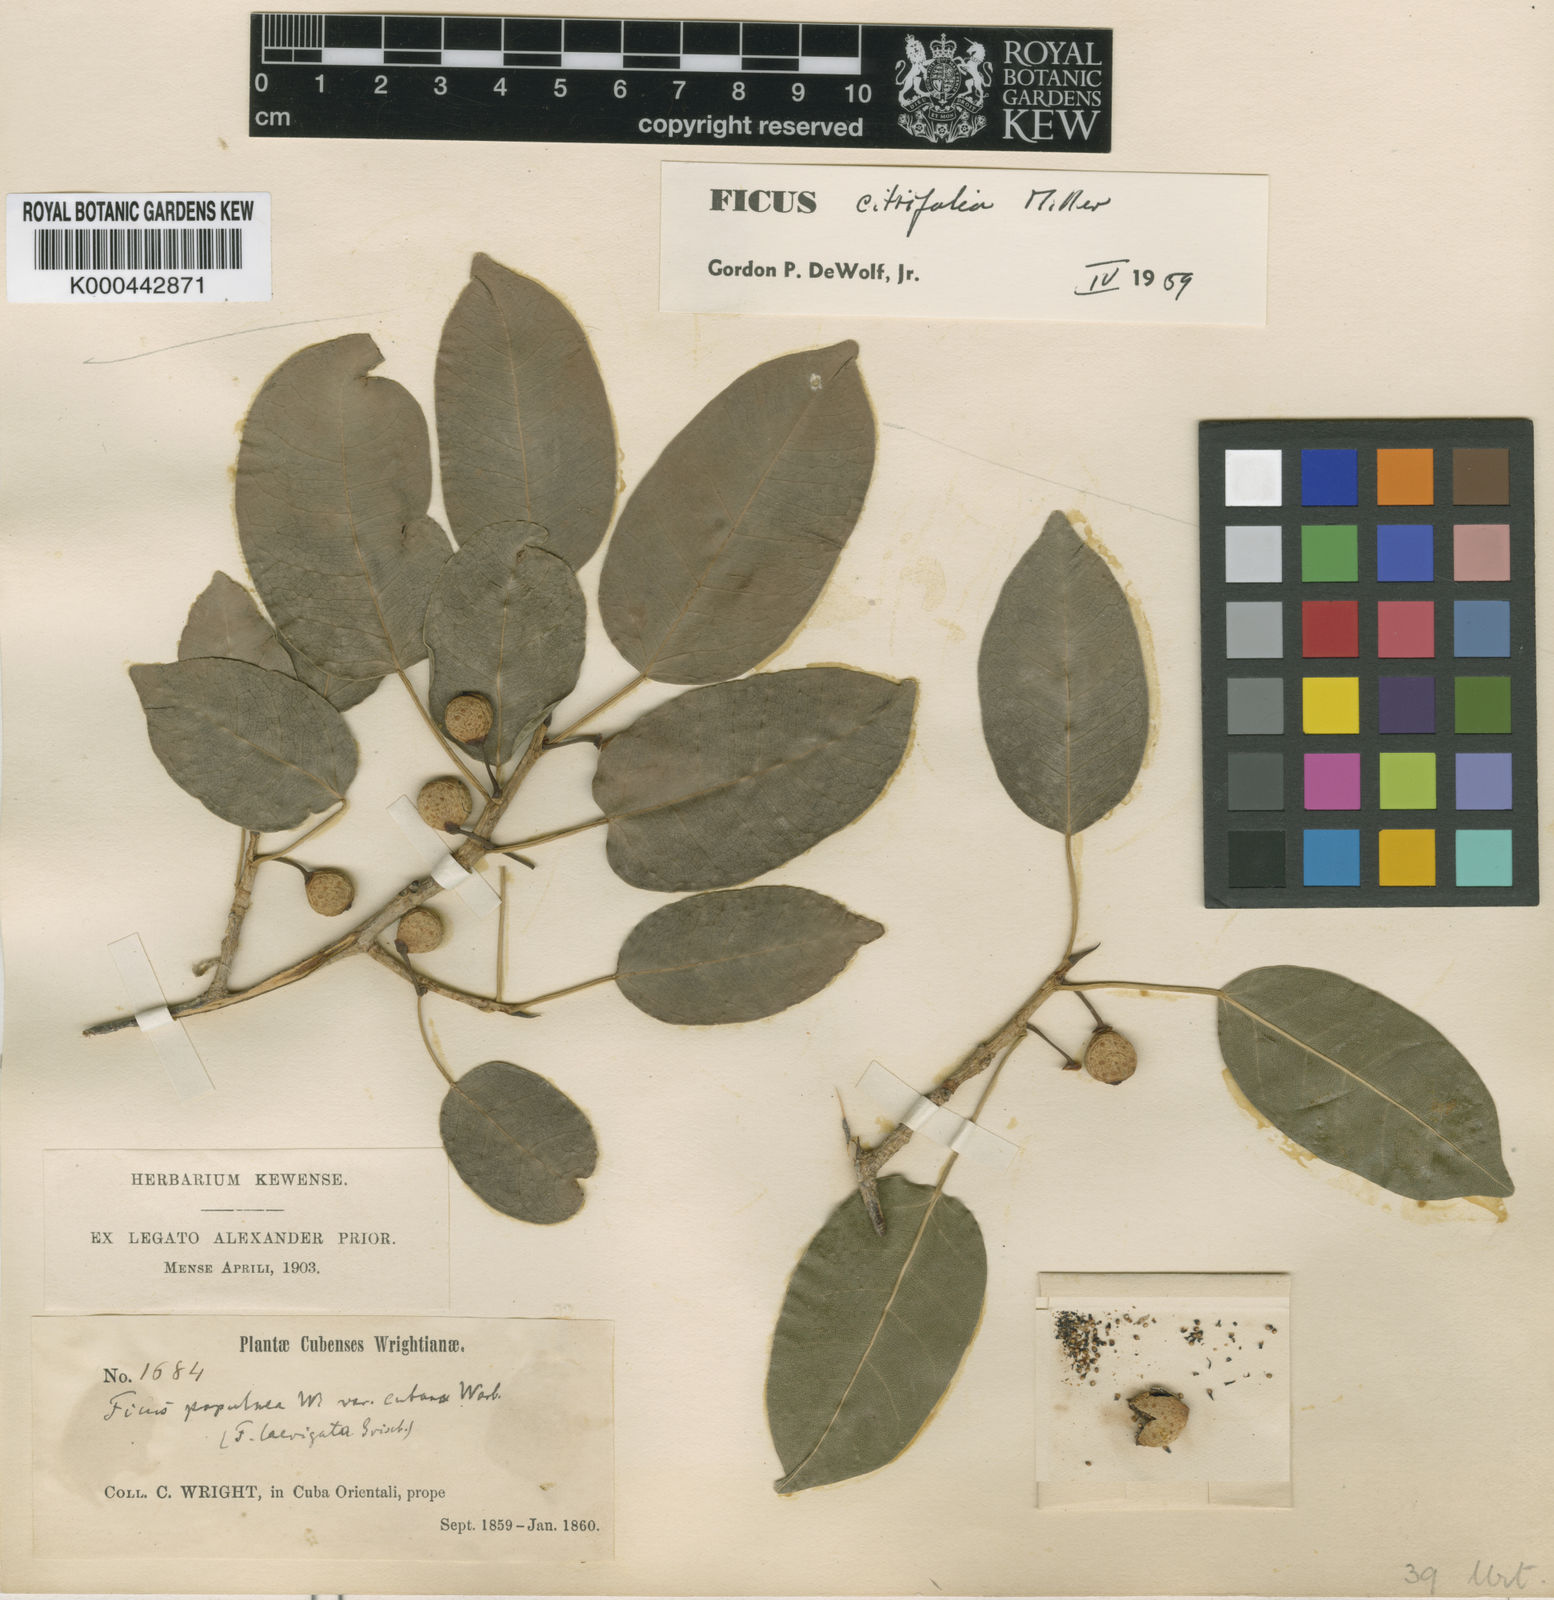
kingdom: Plantae
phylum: Tracheophyta
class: Magnoliopsida
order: Rosales
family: Moraceae
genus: Ficus
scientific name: Ficus citrifolia
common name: Strangler fig
